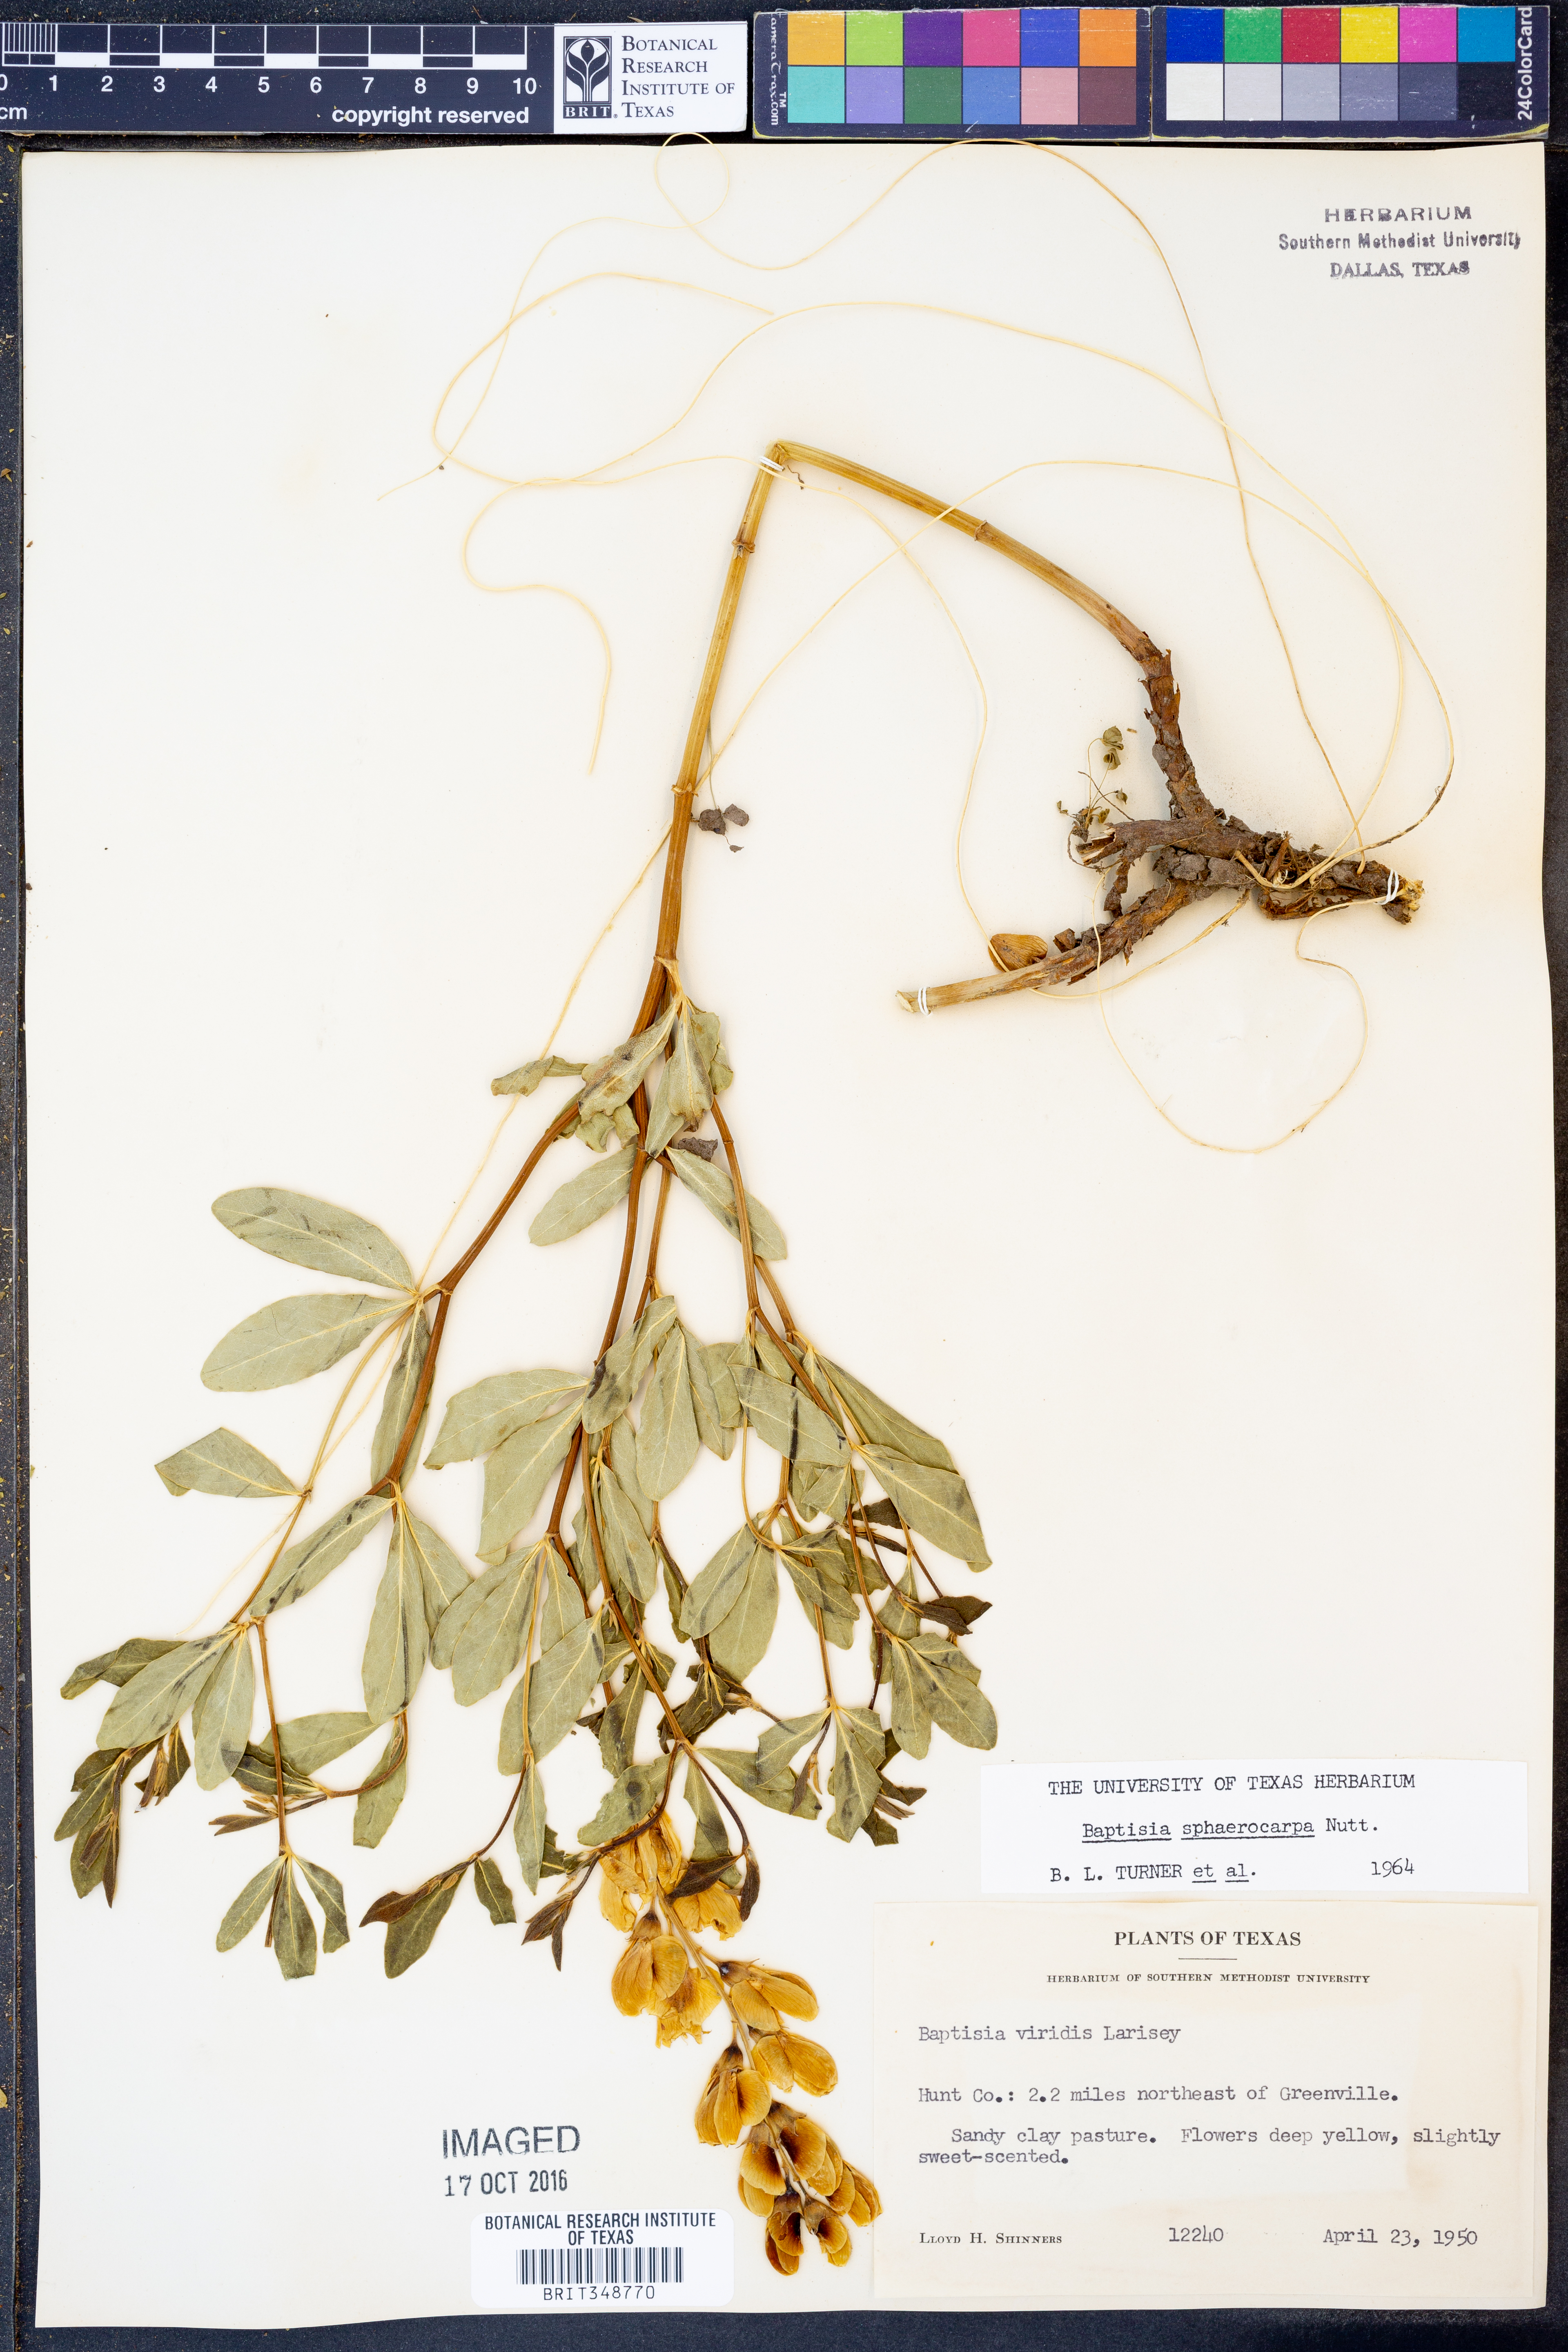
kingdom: Plantae
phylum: Tracheophyta
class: Magnoliopsida
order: Fabales
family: Fabaceae
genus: Baptisia
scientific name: Baptisia sphaerocarpa
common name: Round wild indigo
